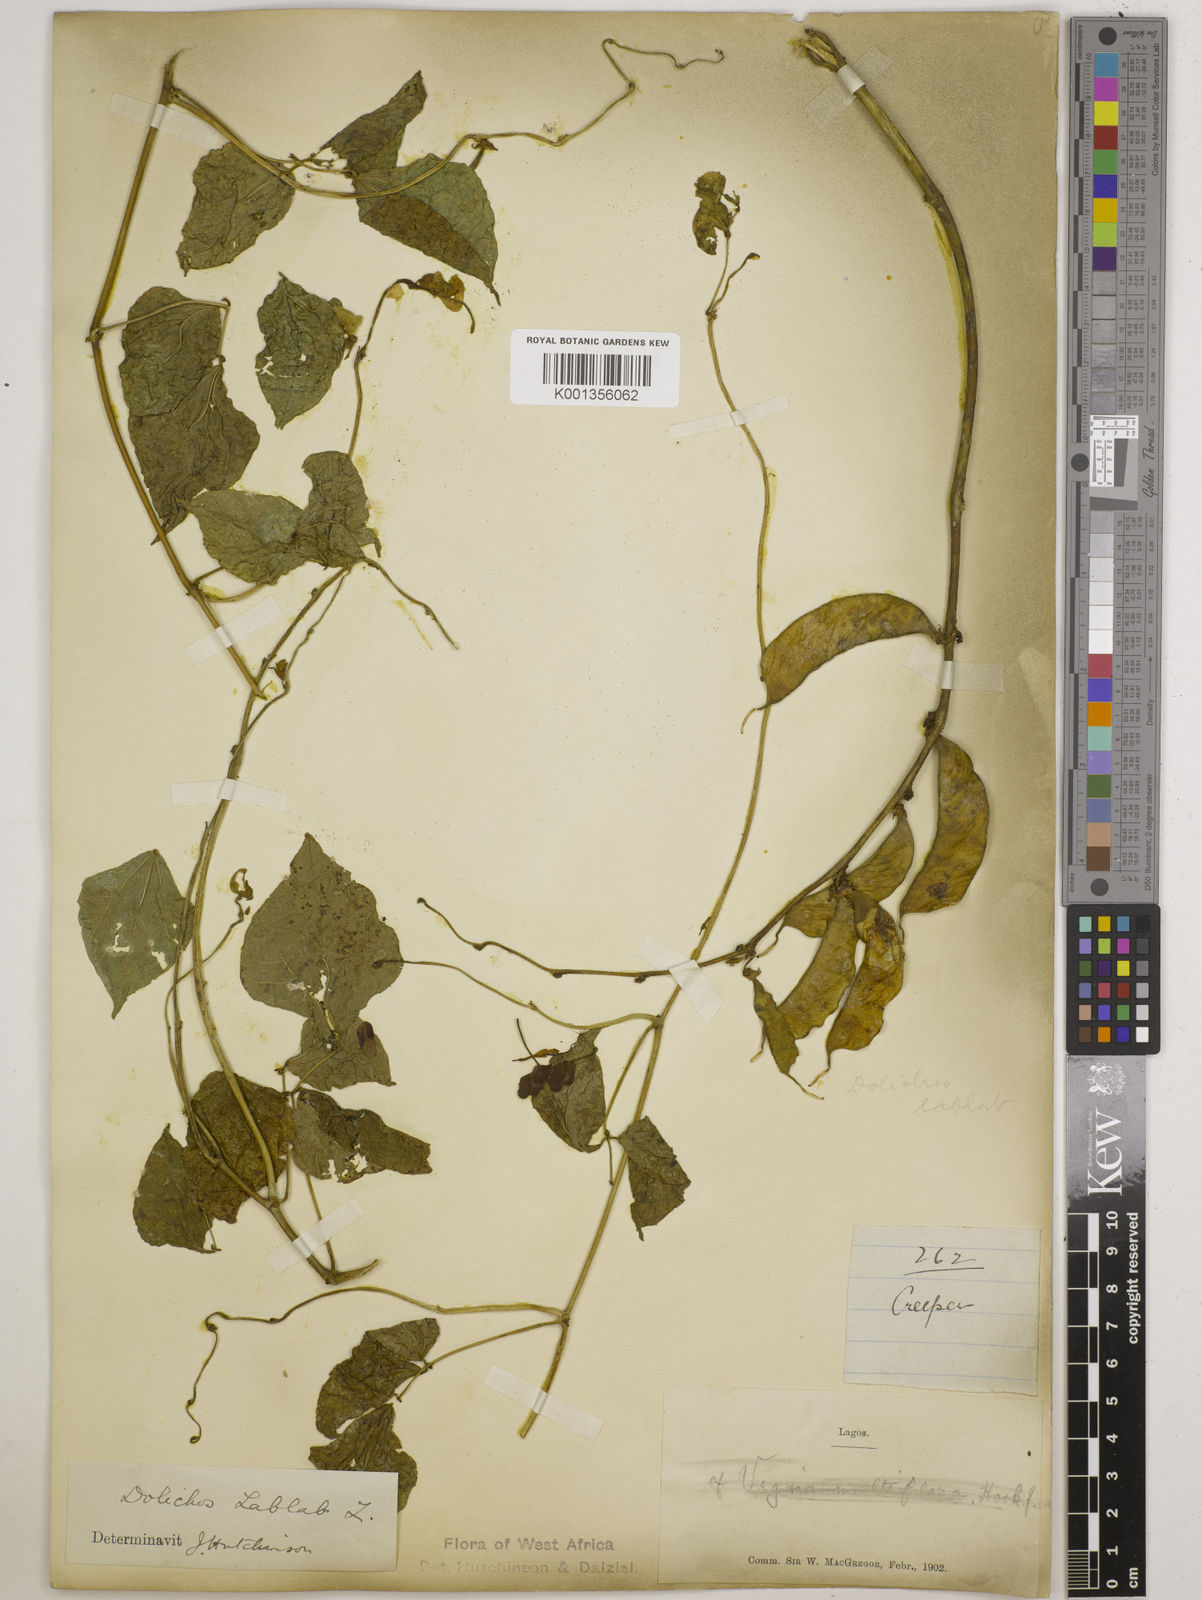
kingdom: Plantae
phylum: Tracheophyta
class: Magnoliopsida
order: Fabales
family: Fabaceae
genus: Lablab
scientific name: Lablab purpureus
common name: Lablab-bean
